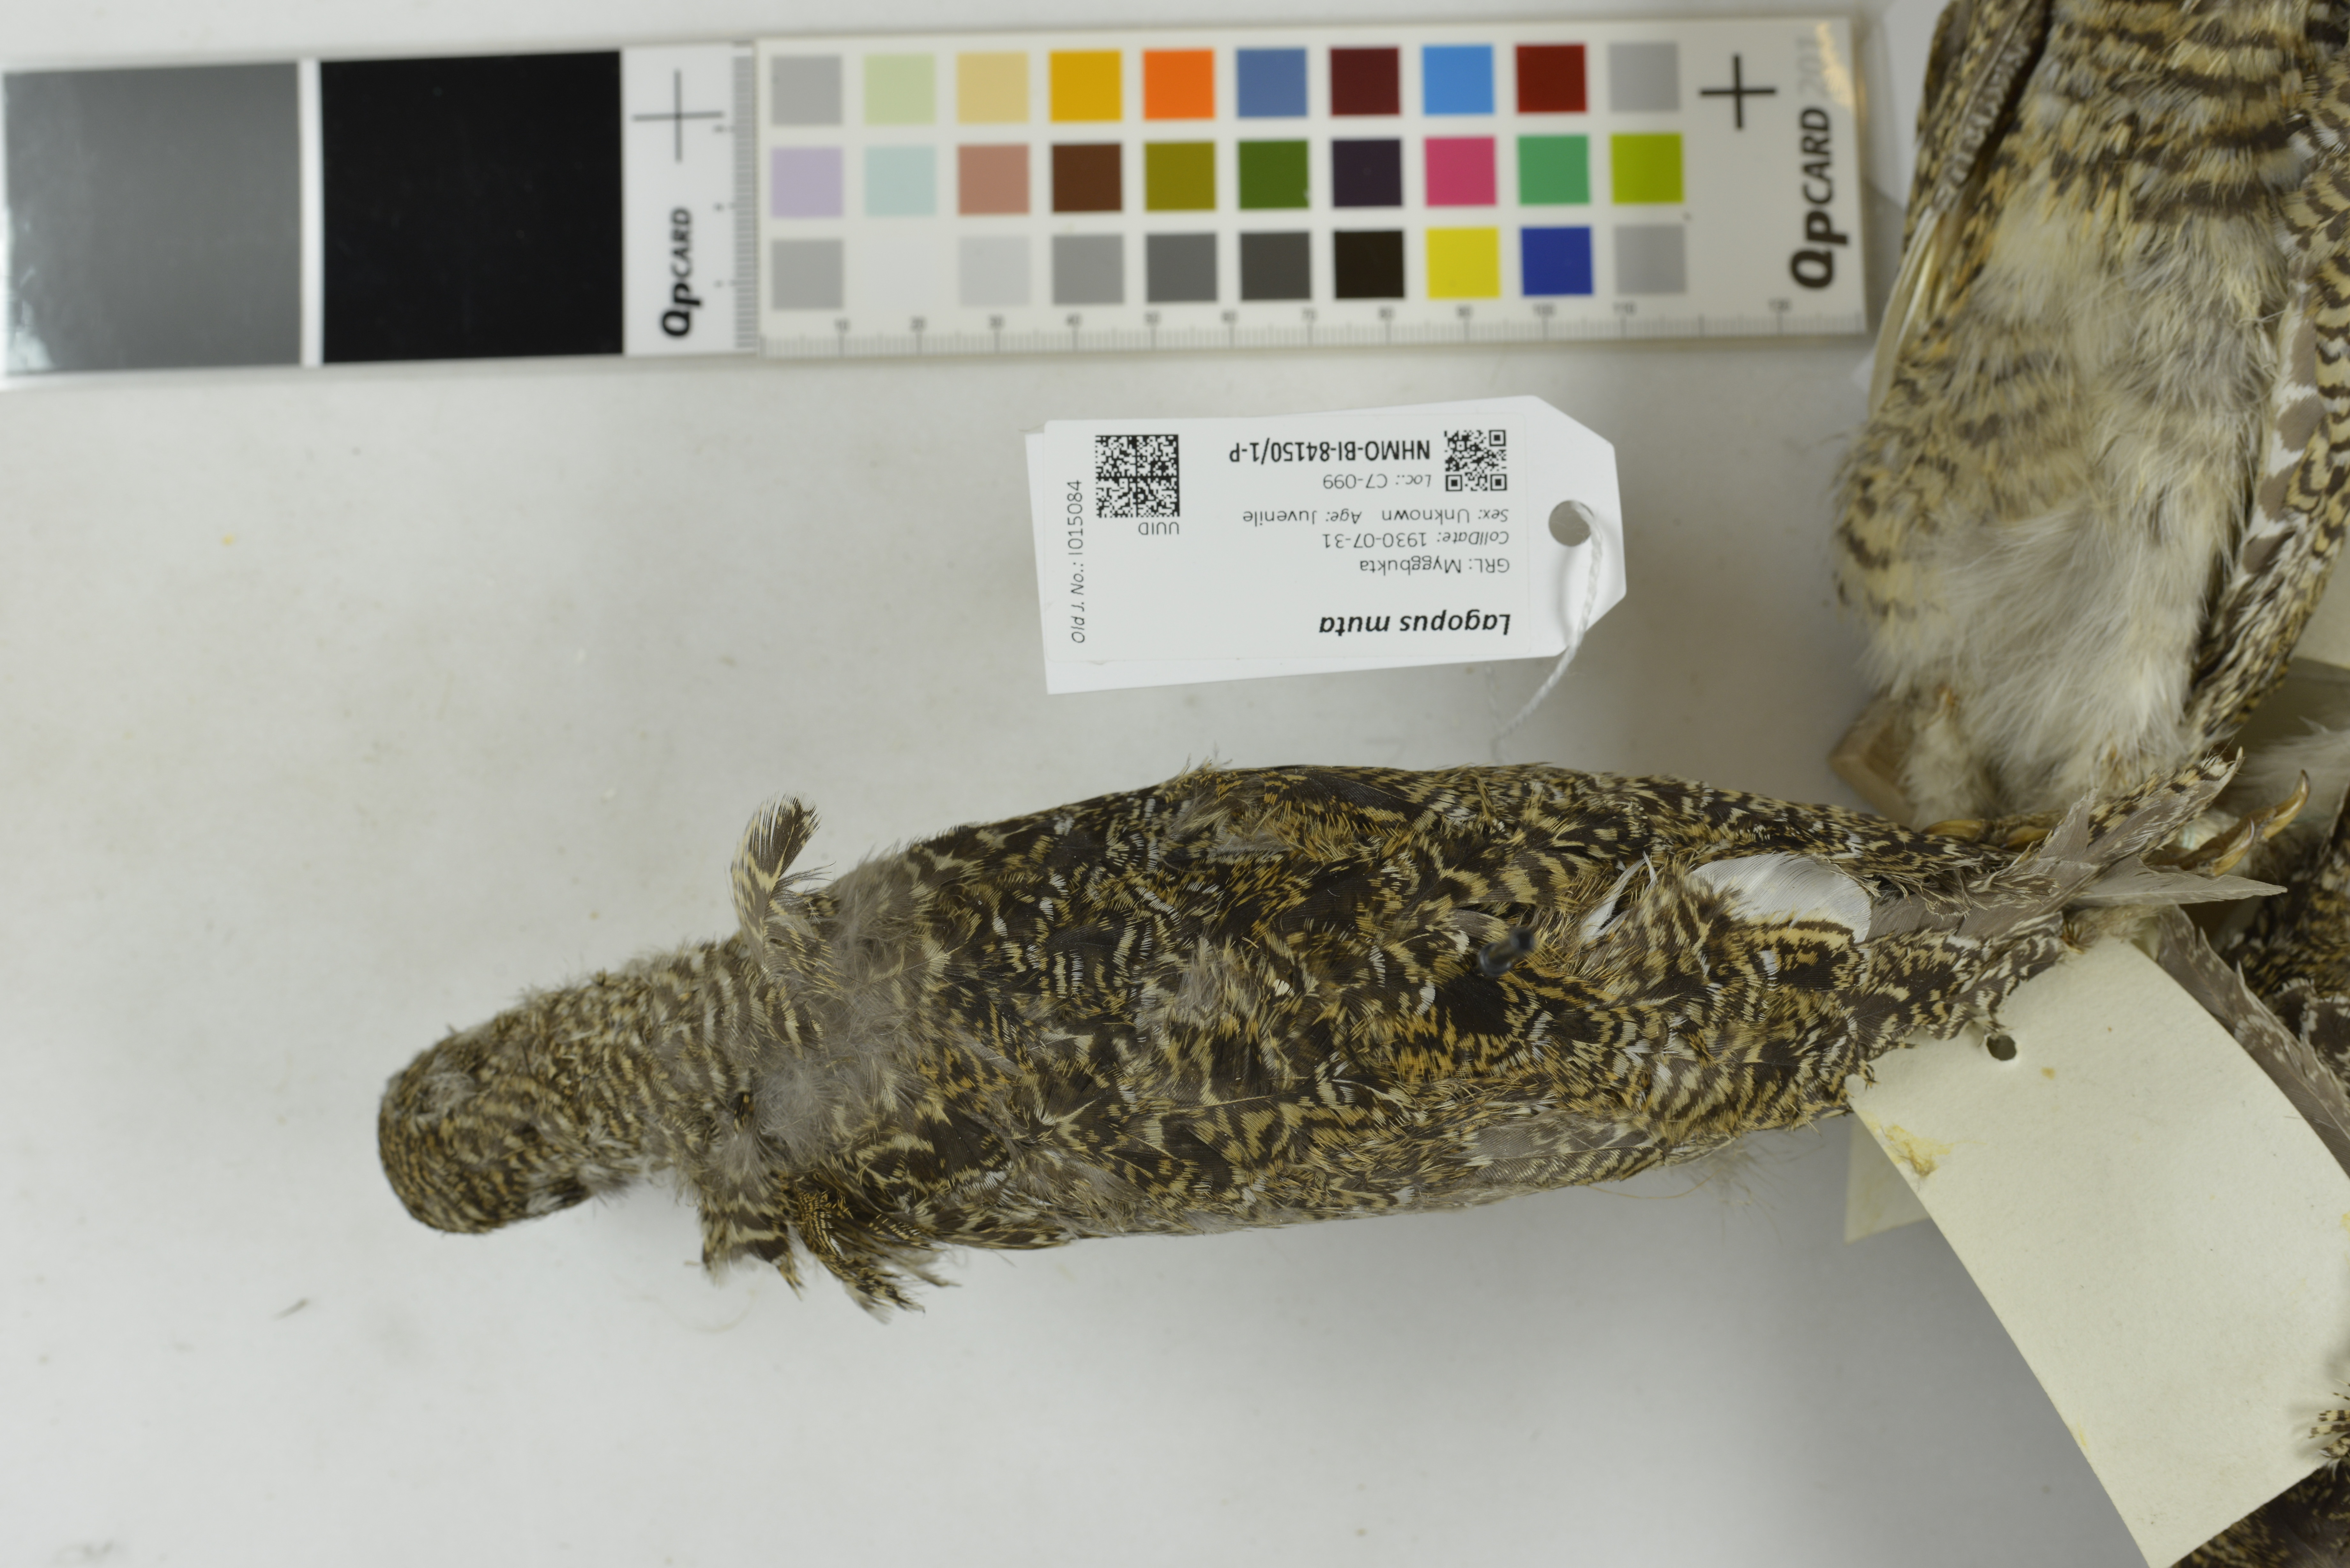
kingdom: Animalia
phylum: Chordata
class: Aves
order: Galliformes
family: Phasianidae
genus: Lagopus
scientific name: Lagopus muta
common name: Rock ptarmigan
